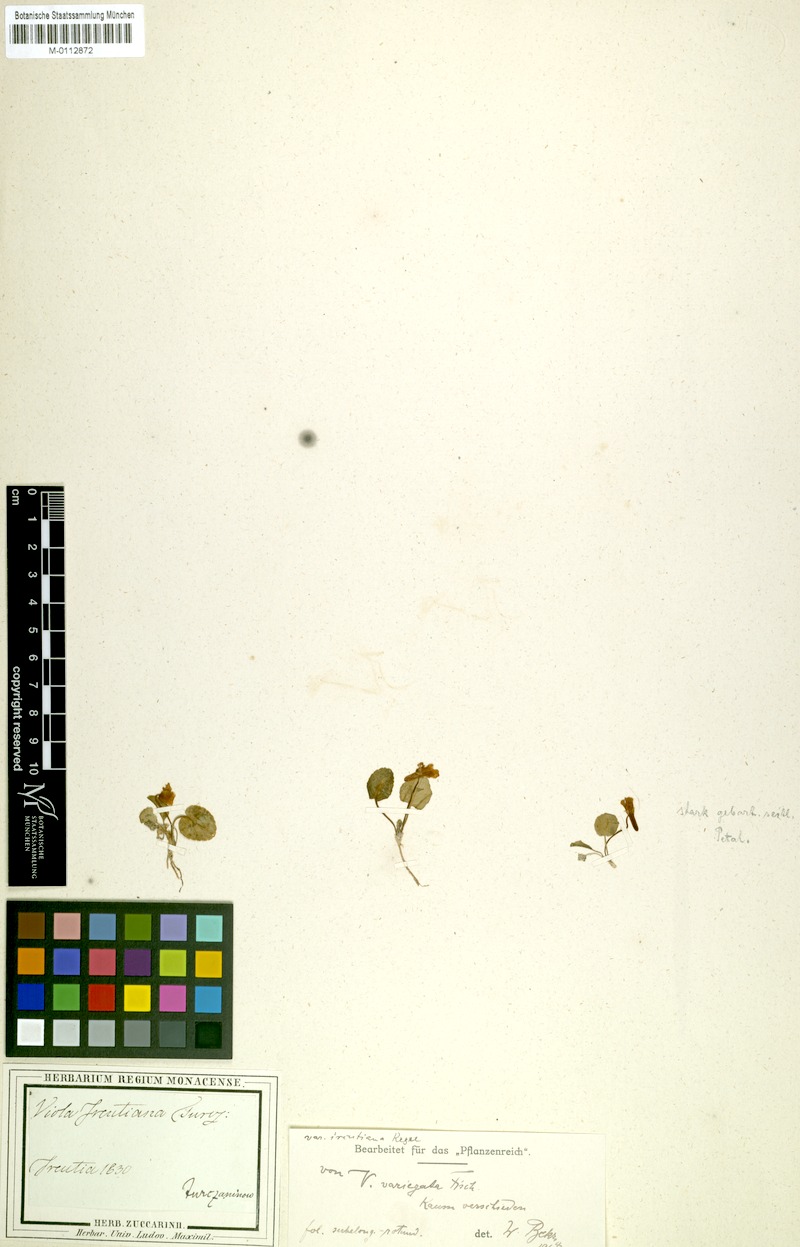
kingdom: Plantae
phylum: Tracheophyta
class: Magnoliopsida
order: Malpighiales
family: Violaceae
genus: Viola
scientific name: Viola variegata
